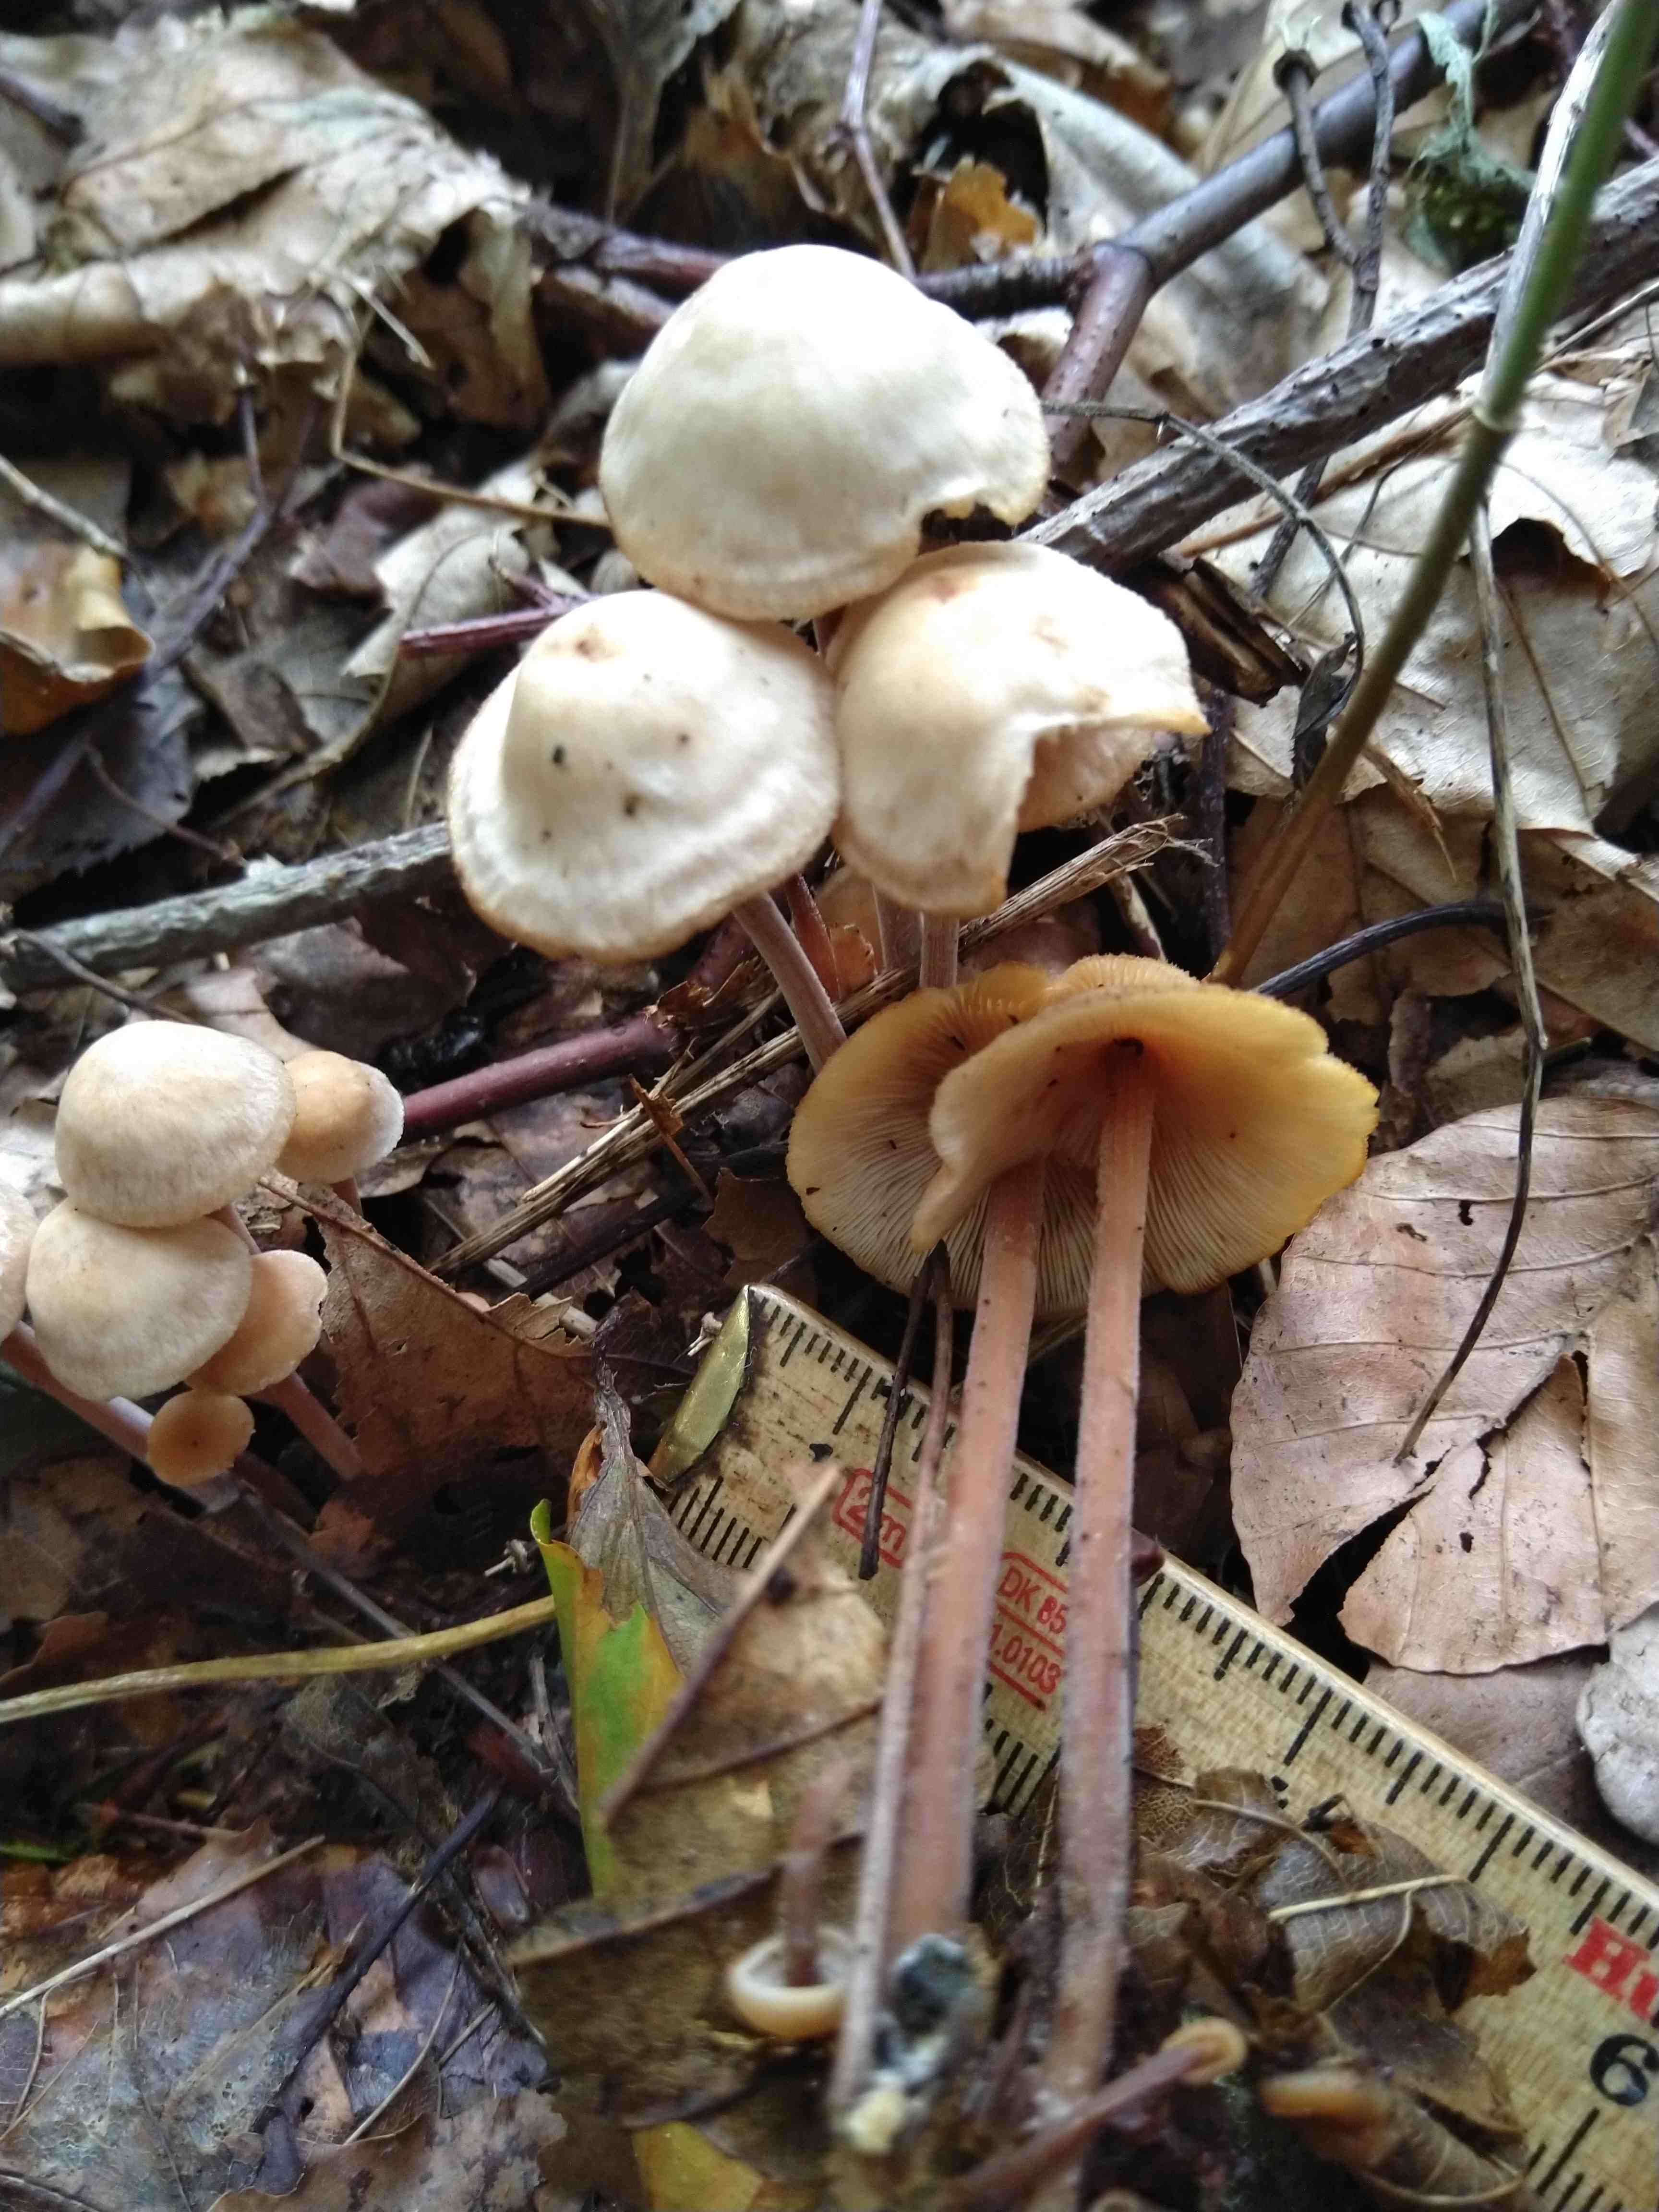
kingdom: Fungi
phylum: Basidiomycota
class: Agaricomycetes
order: Agaricales
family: Omphalotaceae
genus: Collybiopsis
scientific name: Collybiopsis confluens
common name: knippe-fladhat
